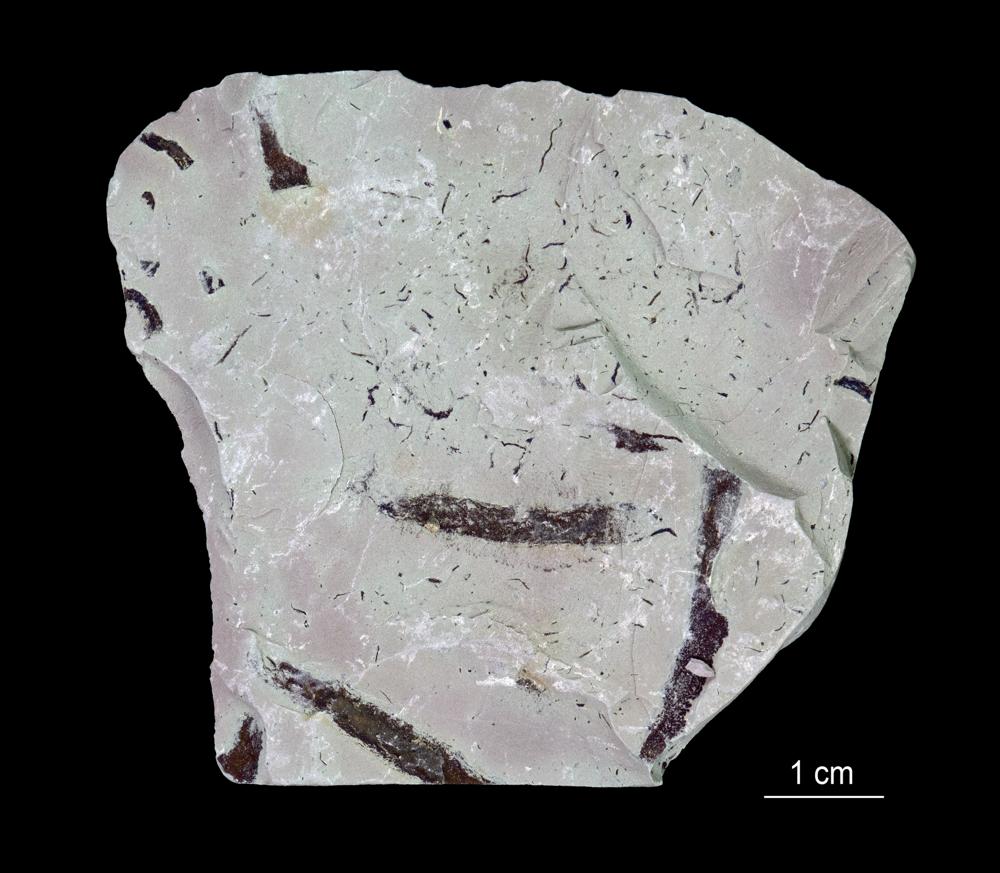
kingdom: Animalia
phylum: Annelida
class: Polychaeta
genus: Hyolithes
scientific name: Hyolithes
